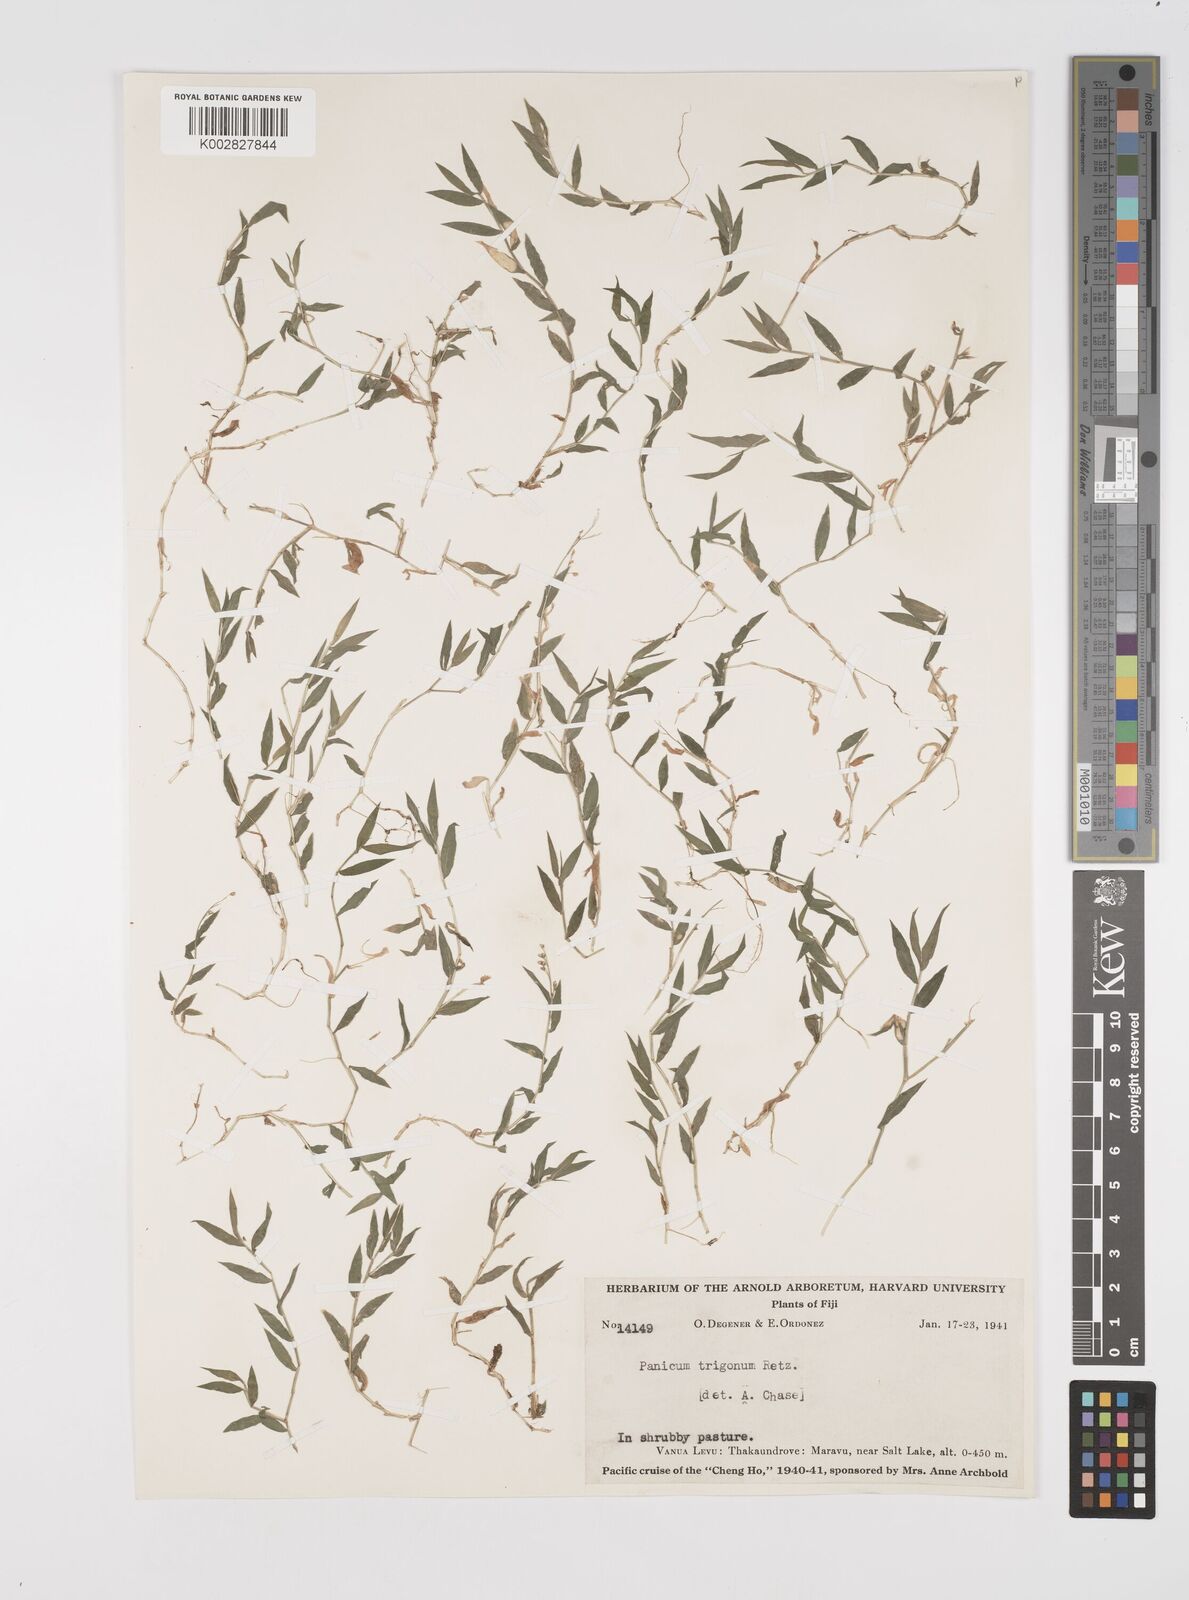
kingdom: Plantae
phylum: Tracheophyta
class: Liliopsida
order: Poales
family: Poaceae
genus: Cyrtococcum
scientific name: Cyrtococcum trigonum
